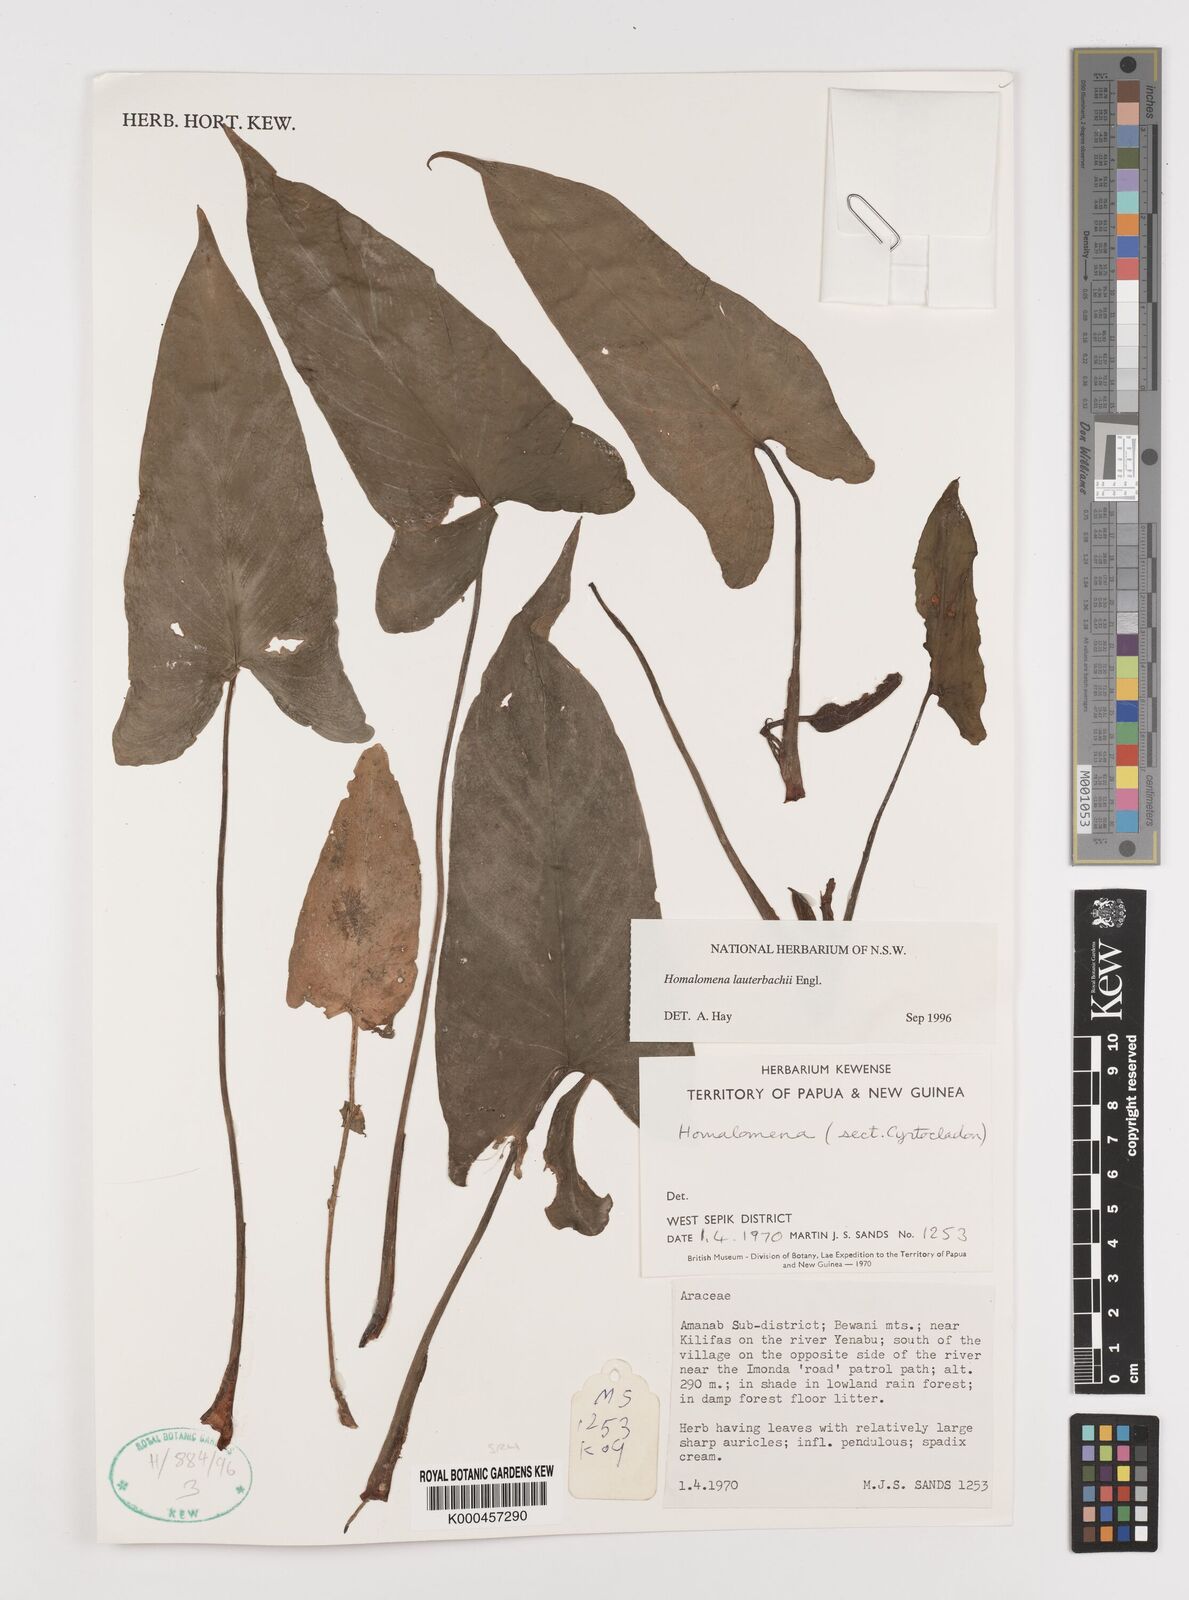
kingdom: Plantae
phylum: Tracheophyta
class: Liliopsida
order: Alismatales
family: Araceae
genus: Homalomena
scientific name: Homalomena lauterbachii
